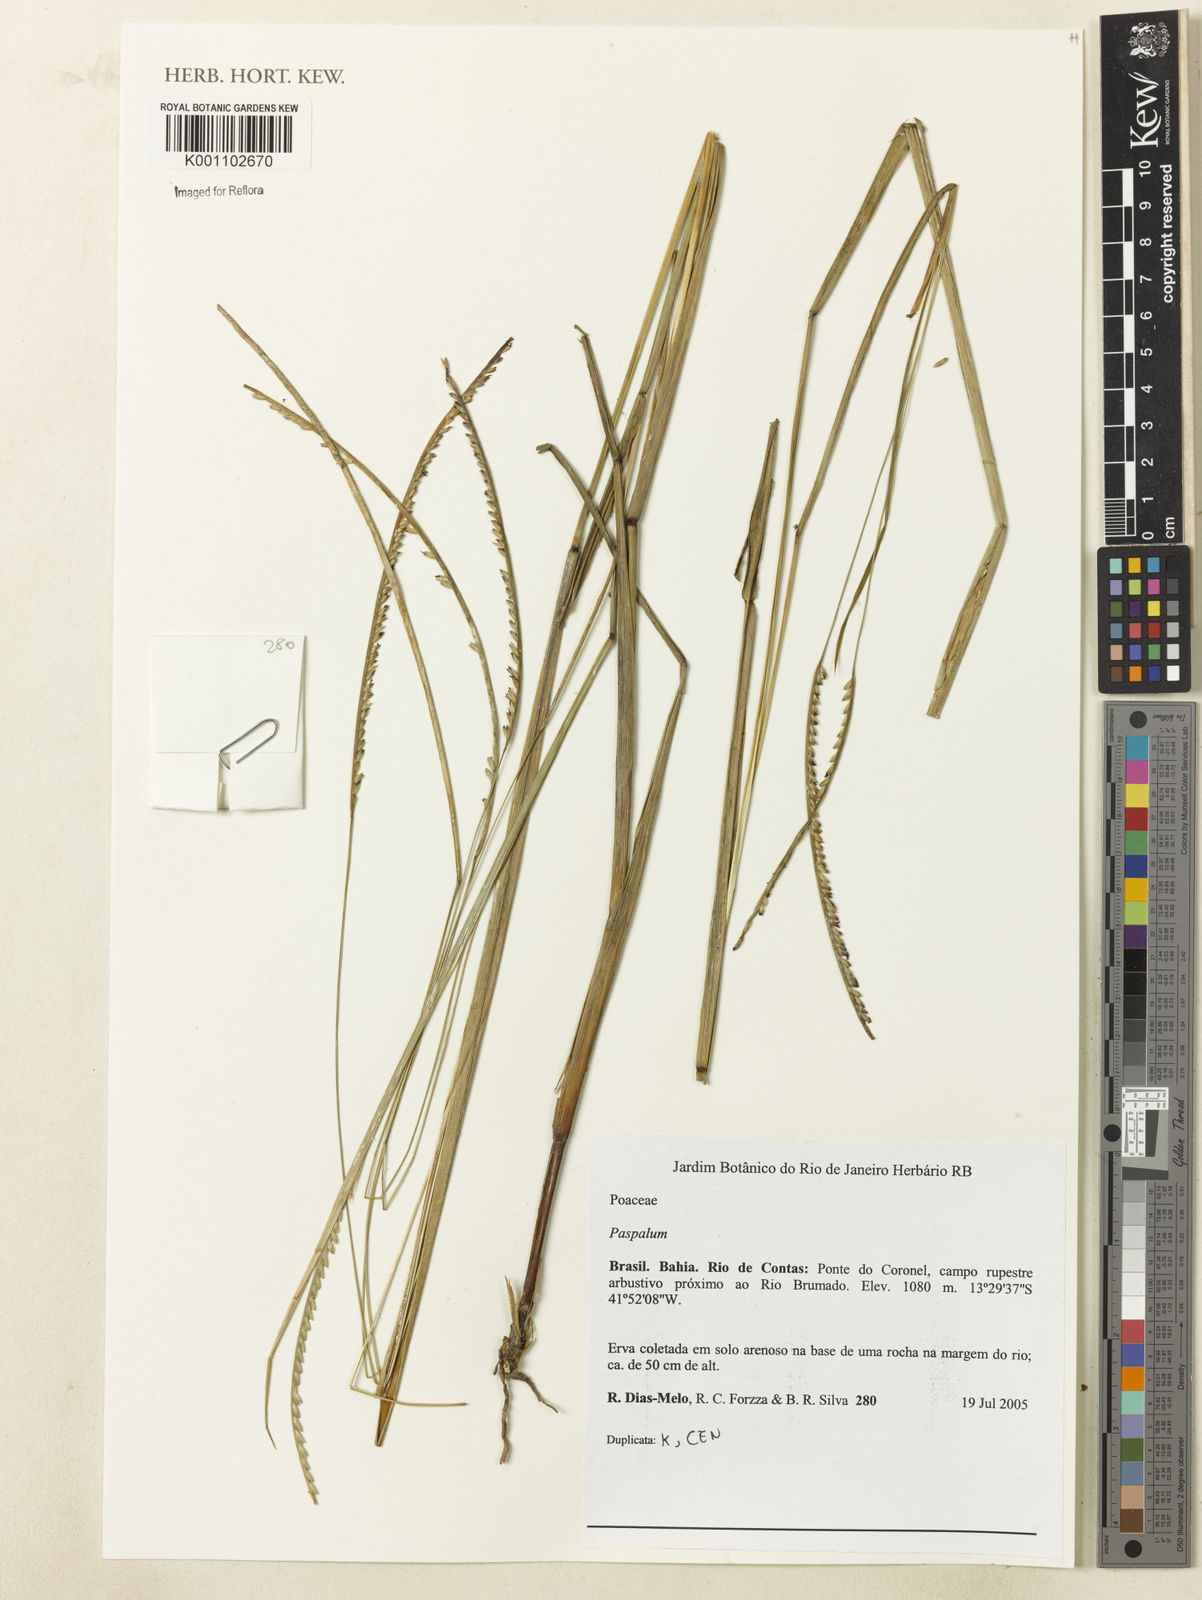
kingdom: Plantae
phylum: Tracheophyta
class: Liliopsida
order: Poales
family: Poaceae
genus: Paspalum
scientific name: Paspalum
